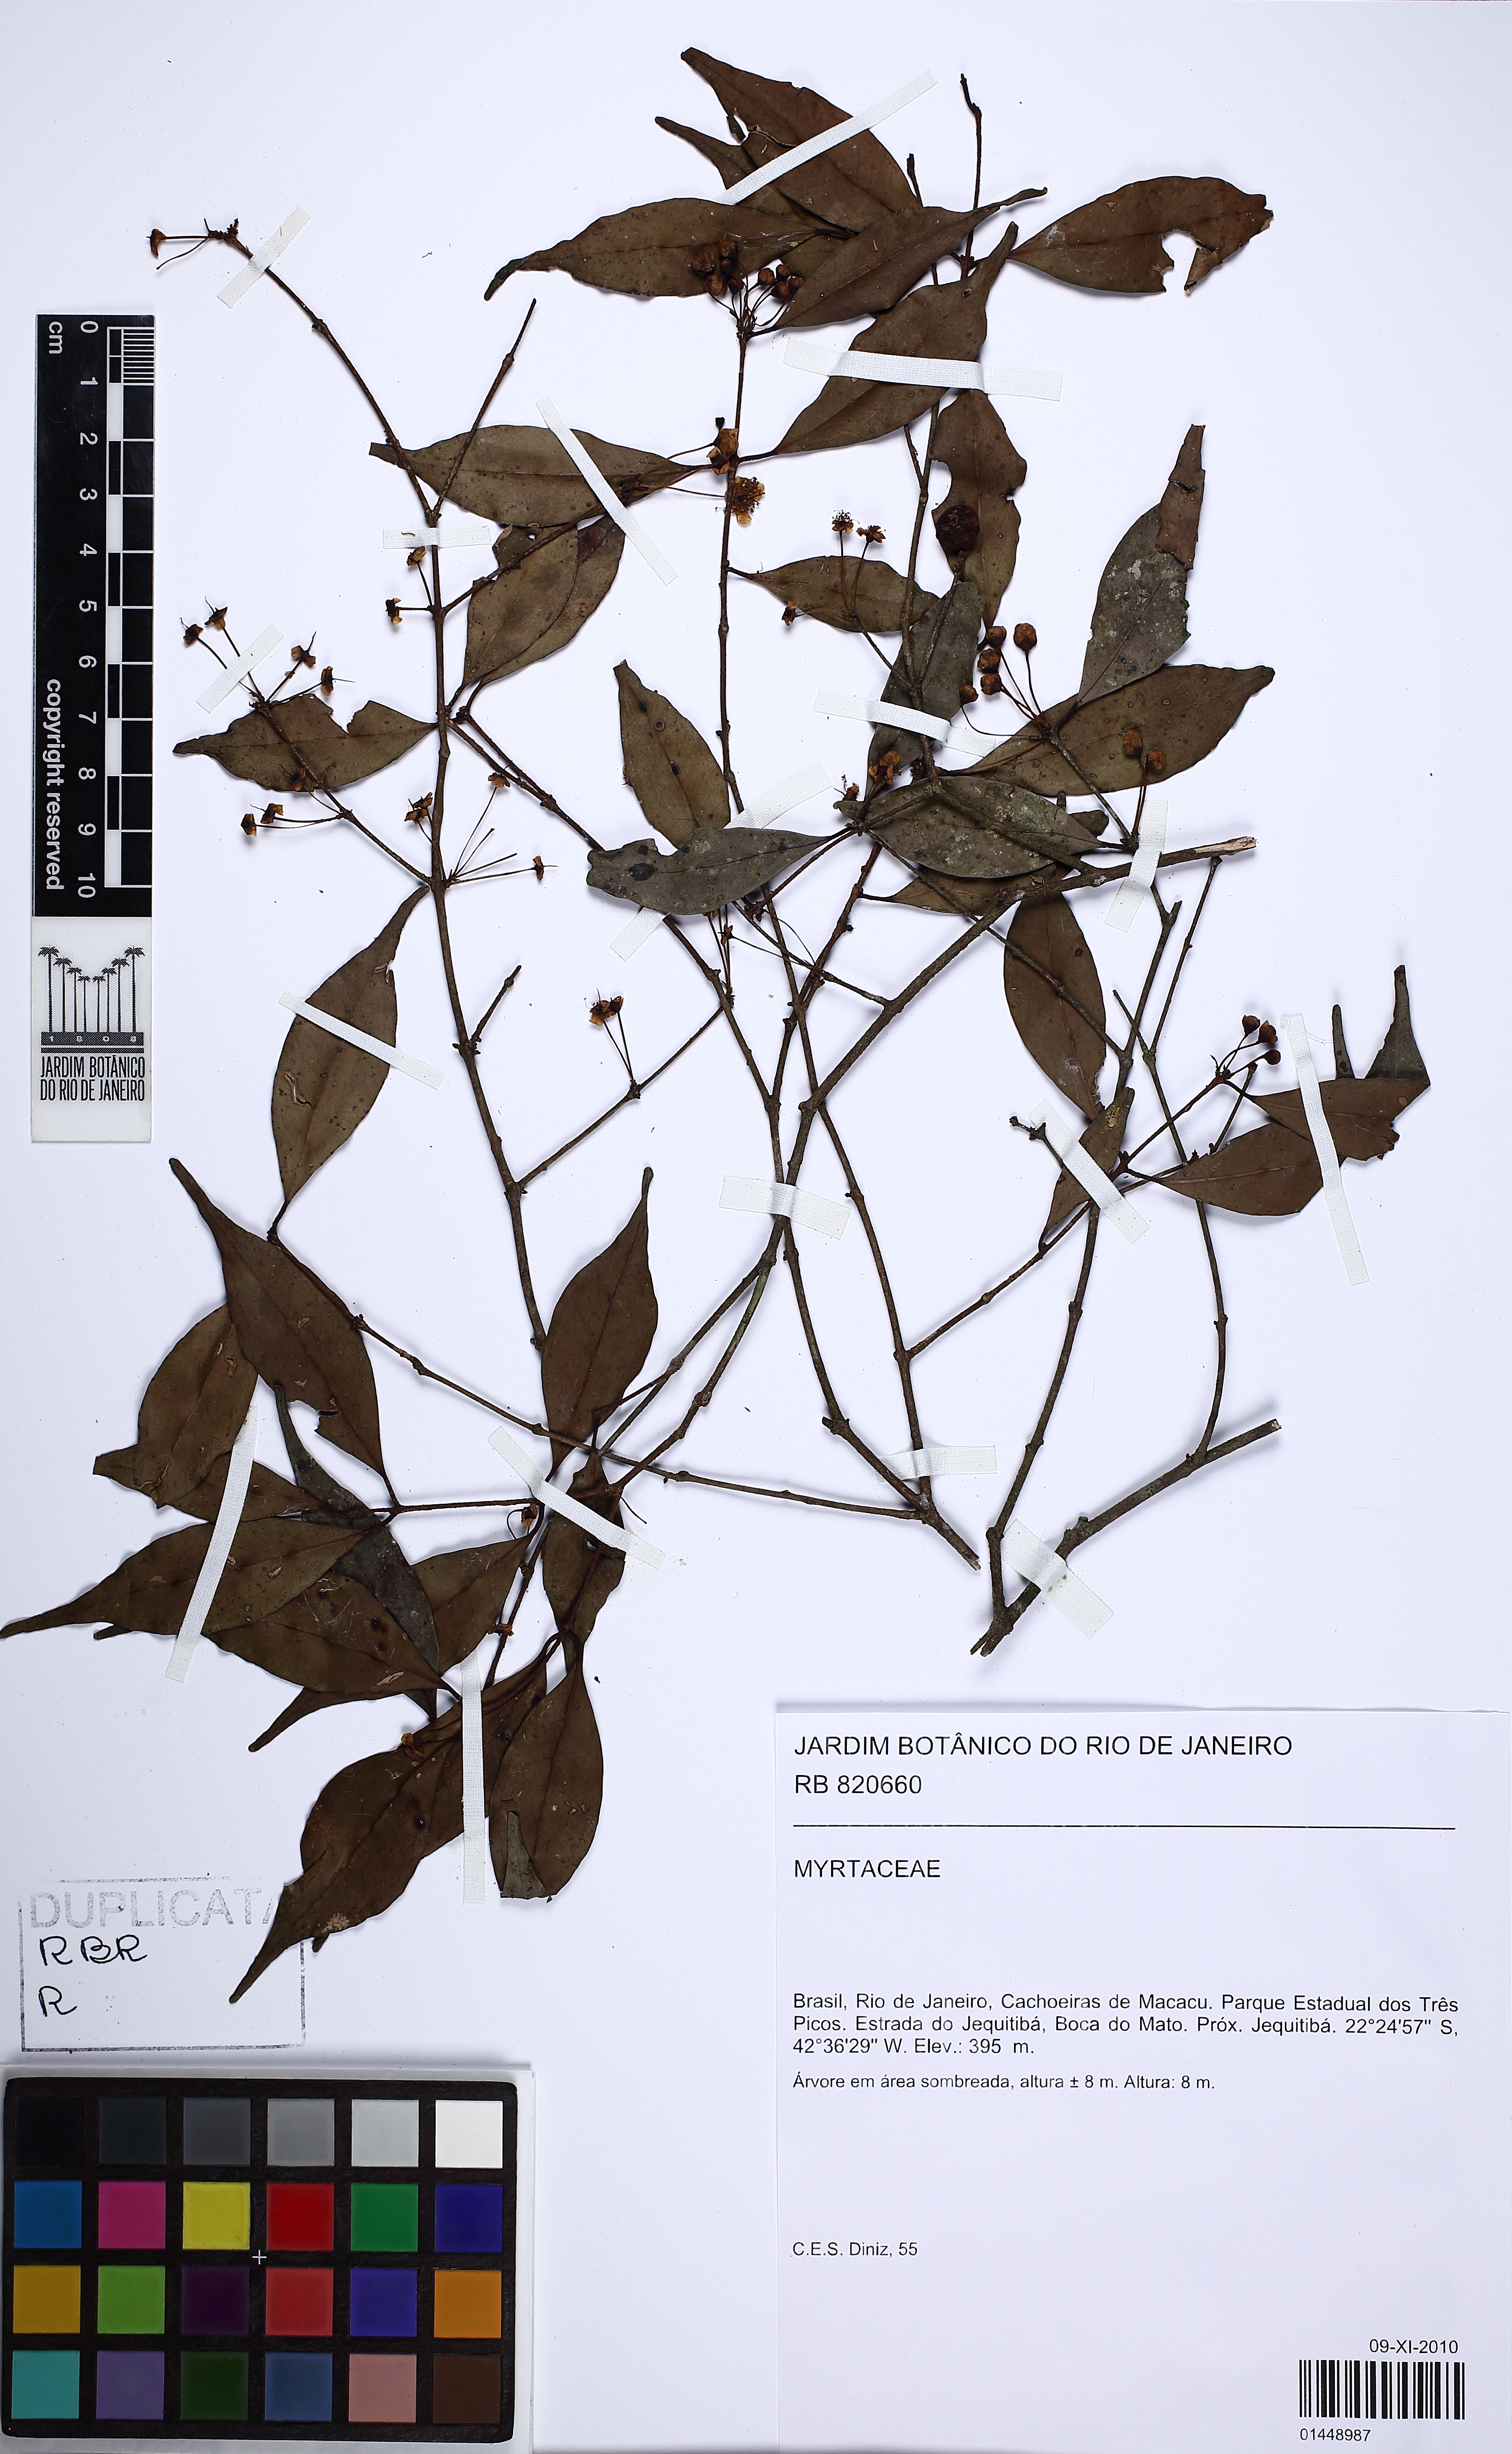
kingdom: Plantae
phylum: Tracheophyta
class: Magnoliopsida
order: Myrtales
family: Myrtaceae
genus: Eugenia
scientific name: Eugenia
